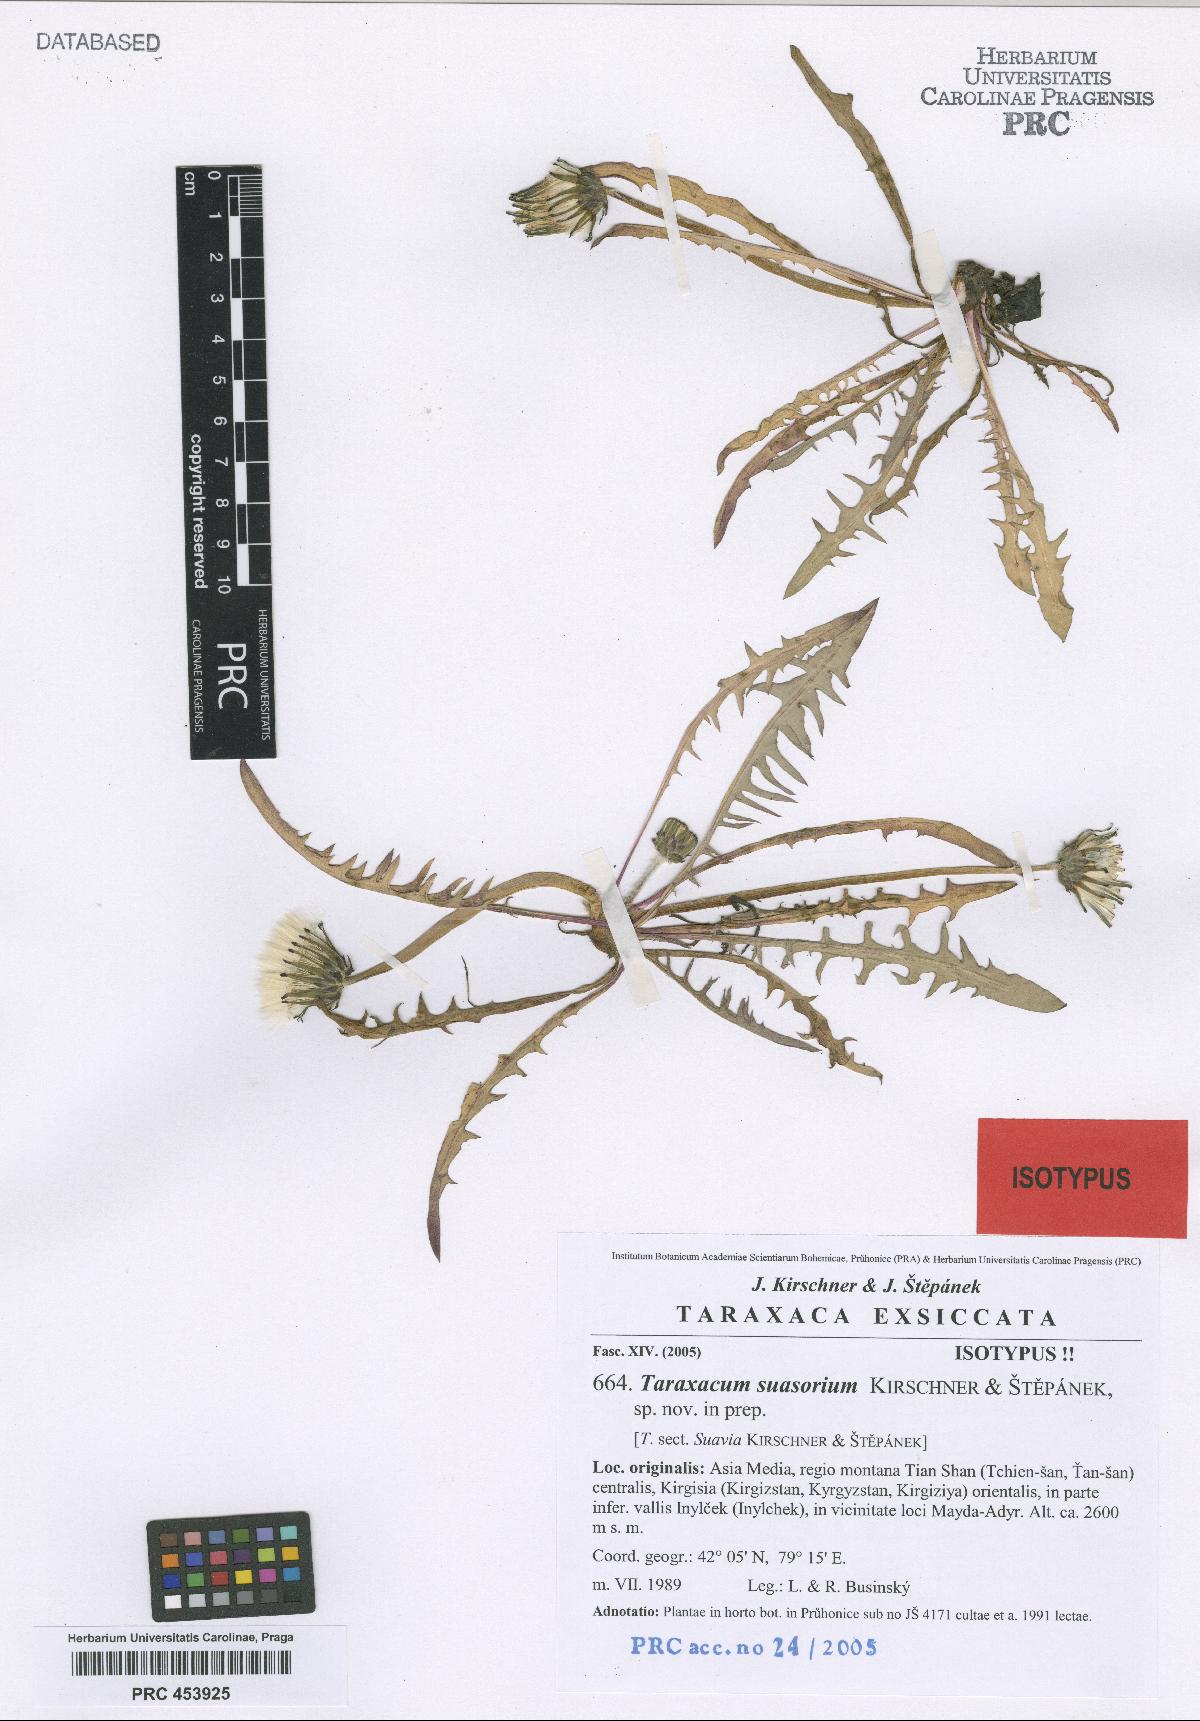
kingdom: Plantae
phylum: Tracheophyta
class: Magnoliopsida
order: Asterales
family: Asteraceae
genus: Taraxacum
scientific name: Taraxacum suasorium
